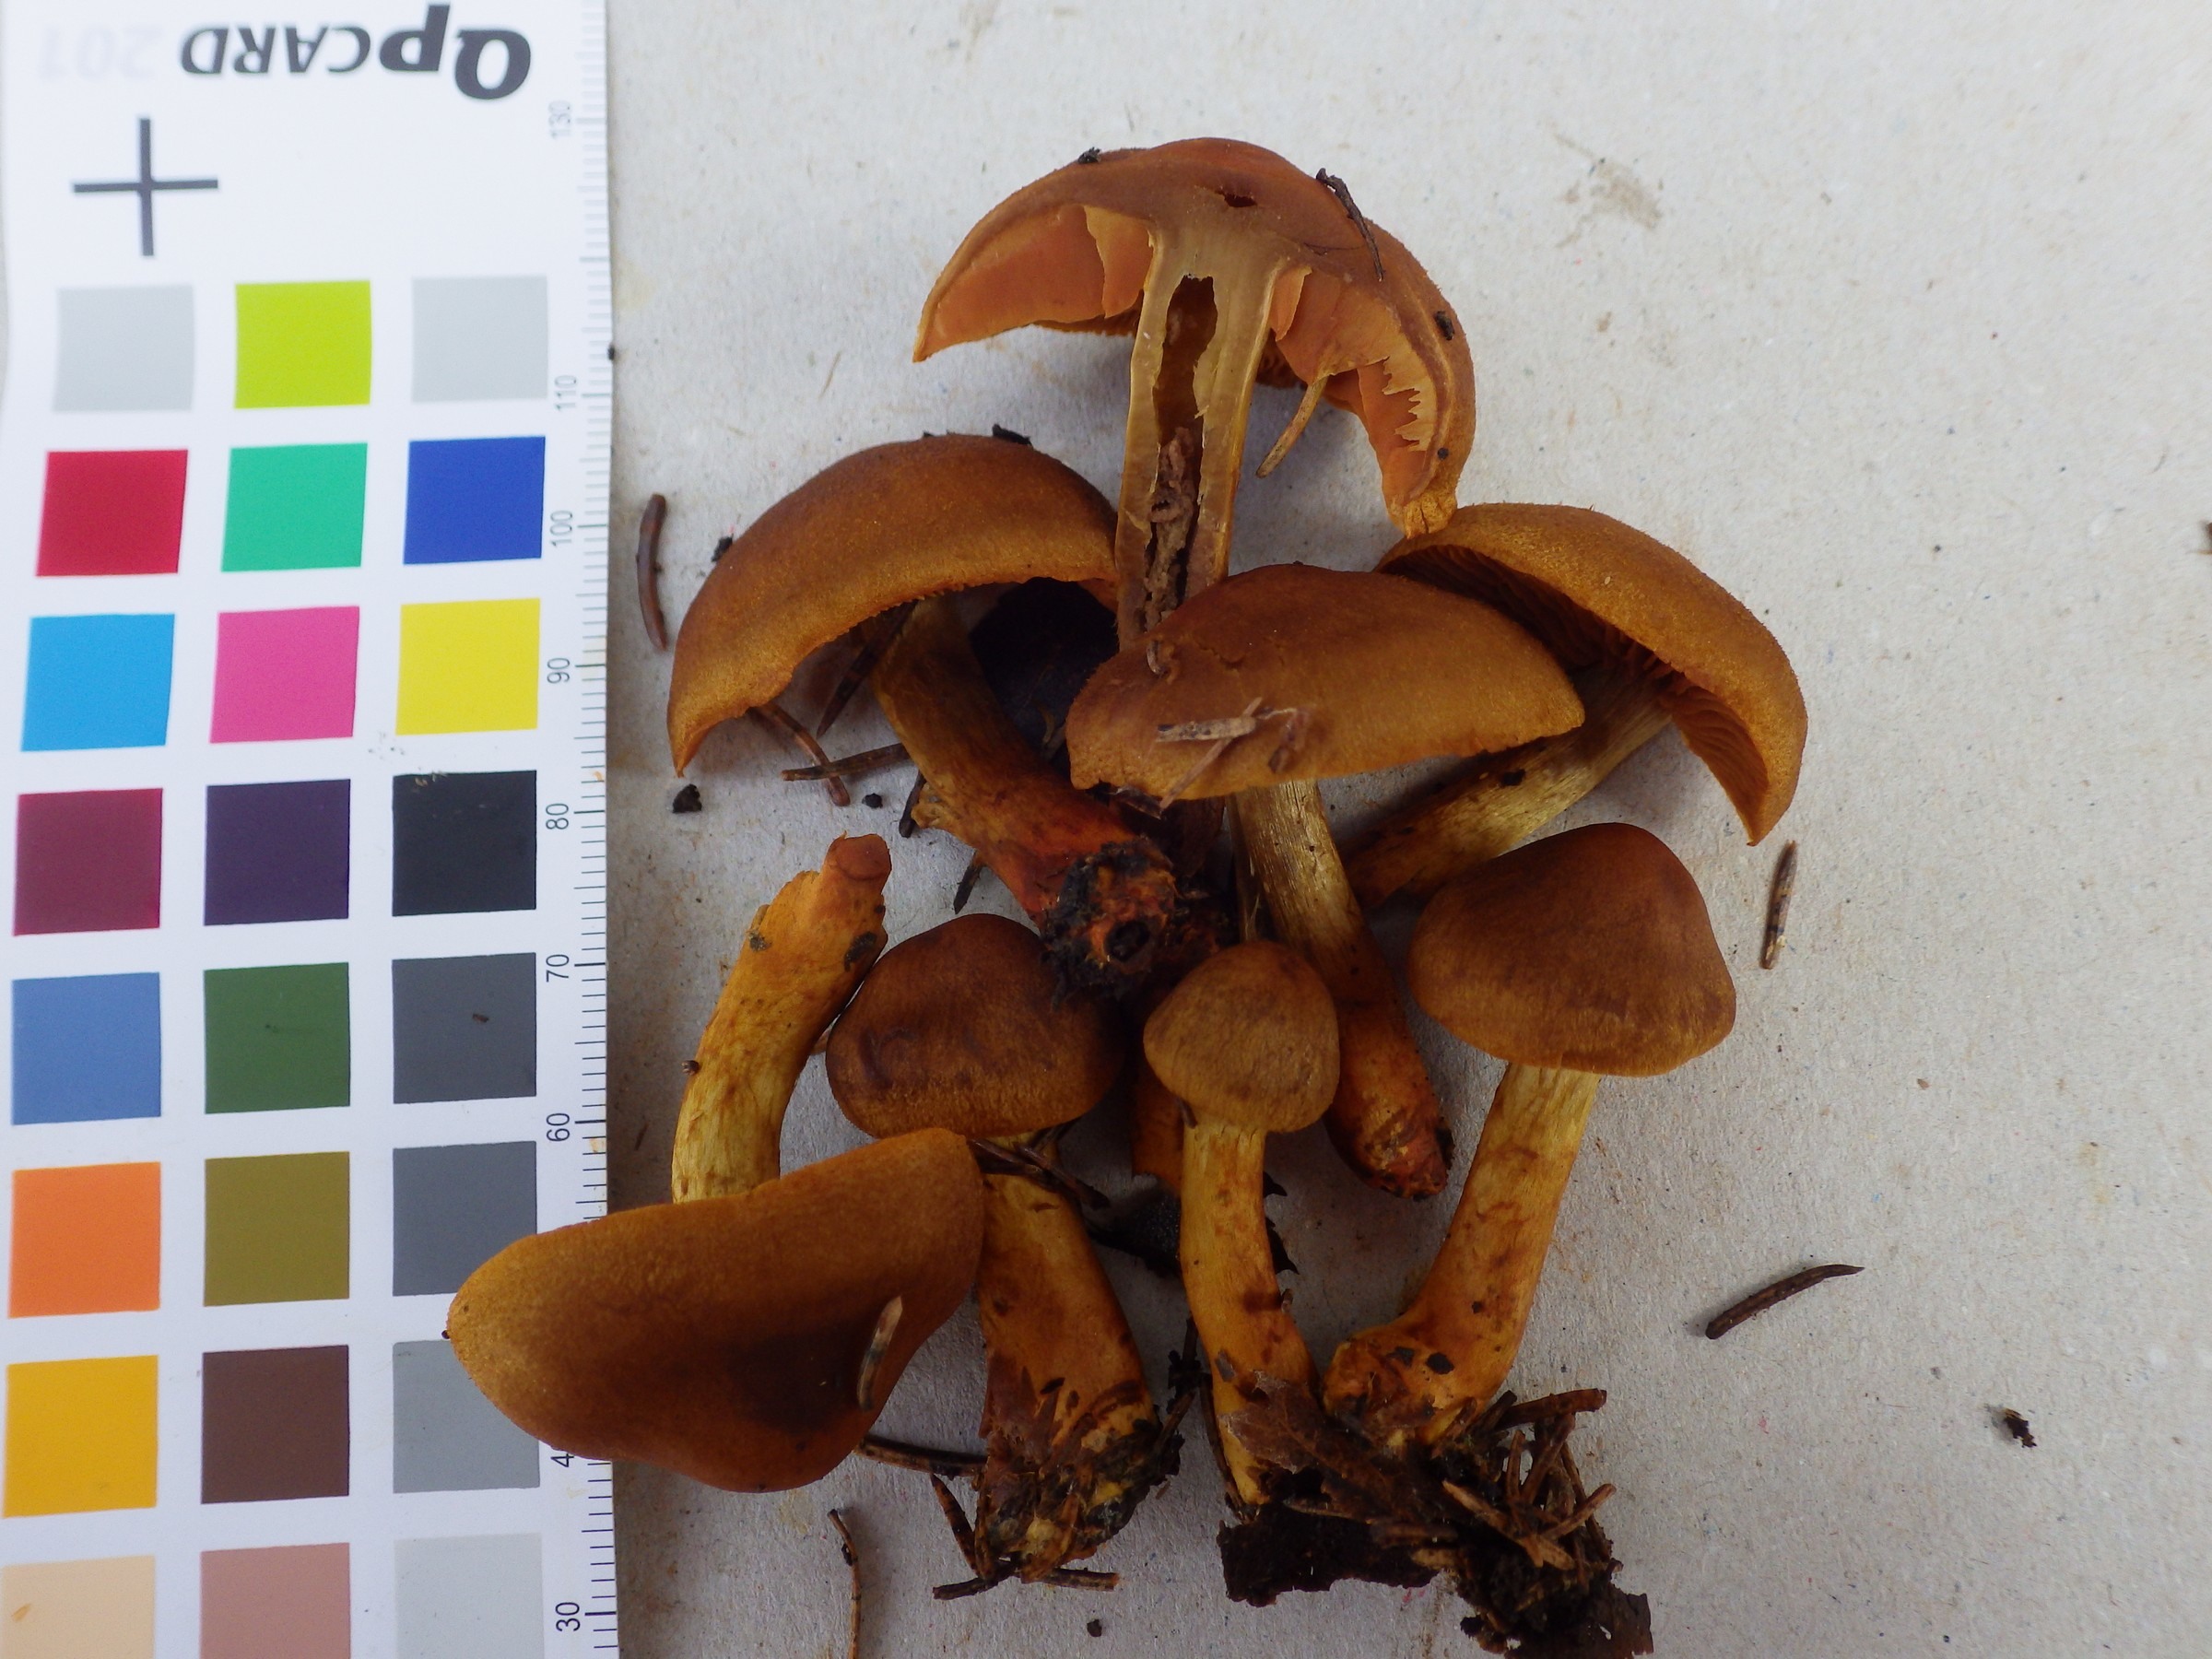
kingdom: Fungi
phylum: Basidiomycota
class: Agaricomycetes
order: Agaricales
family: Cortinariaceae
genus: Cortinarius
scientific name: Cortinarius pseudofervidus
